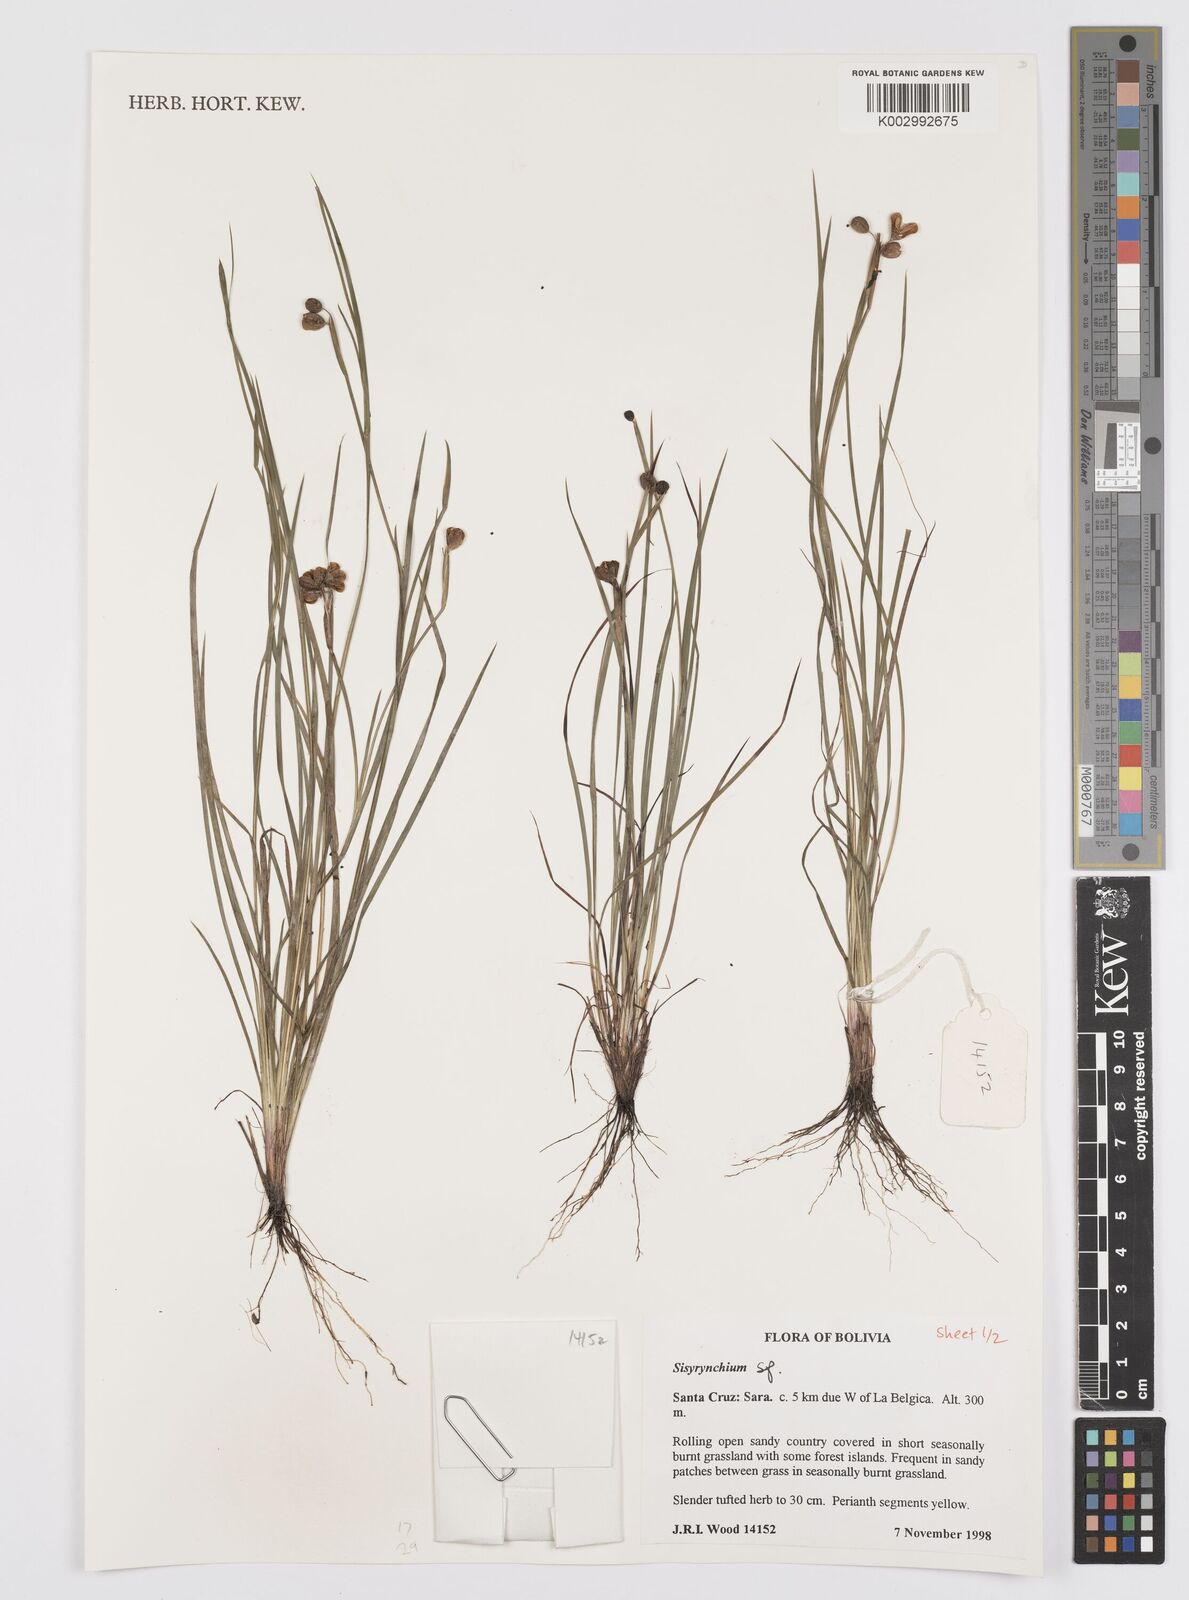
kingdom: Plantae
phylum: Tracheophyta
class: Liliopsida
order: Asparagales
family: Iridaceae
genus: Sisyrinchium
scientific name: Sisyrinchium
